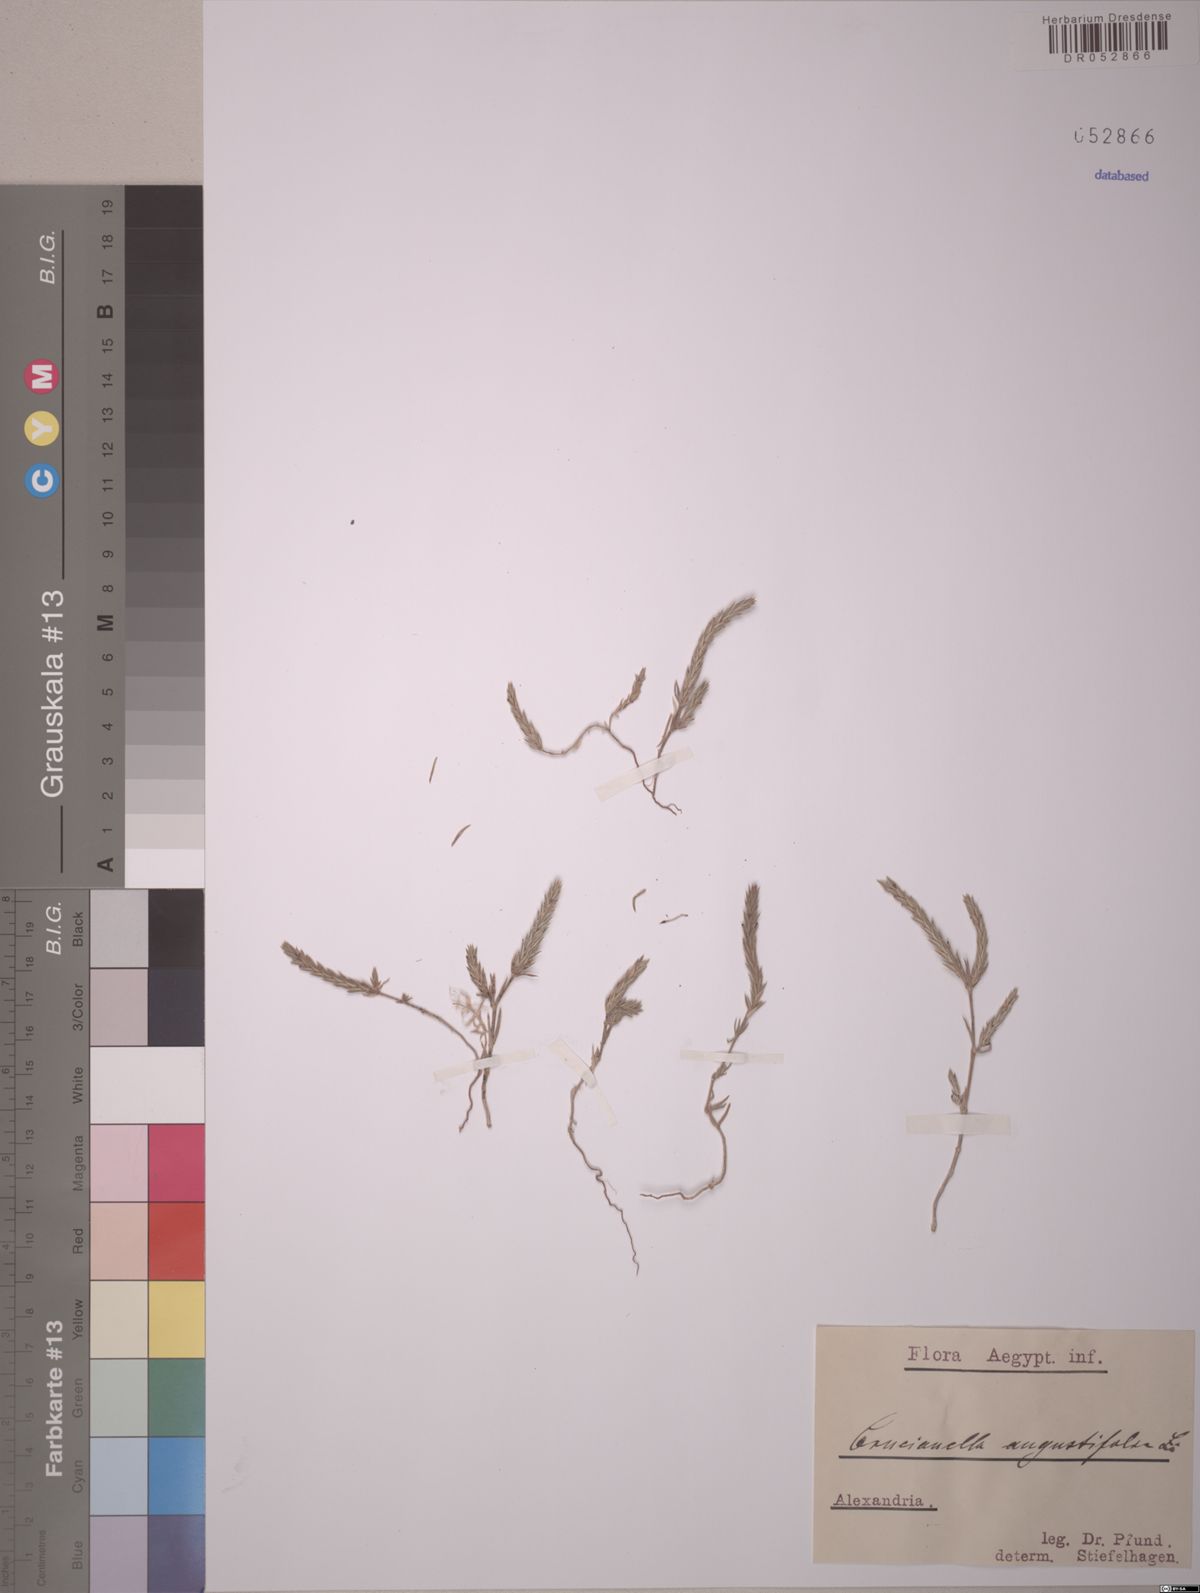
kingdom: Plantae
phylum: Tracheophyta
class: Magnoliopsida
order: Gentianales
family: Rubiaceae
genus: Crucianella
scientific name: Crucianella angustifolia
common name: Narrowleaf crucianella
